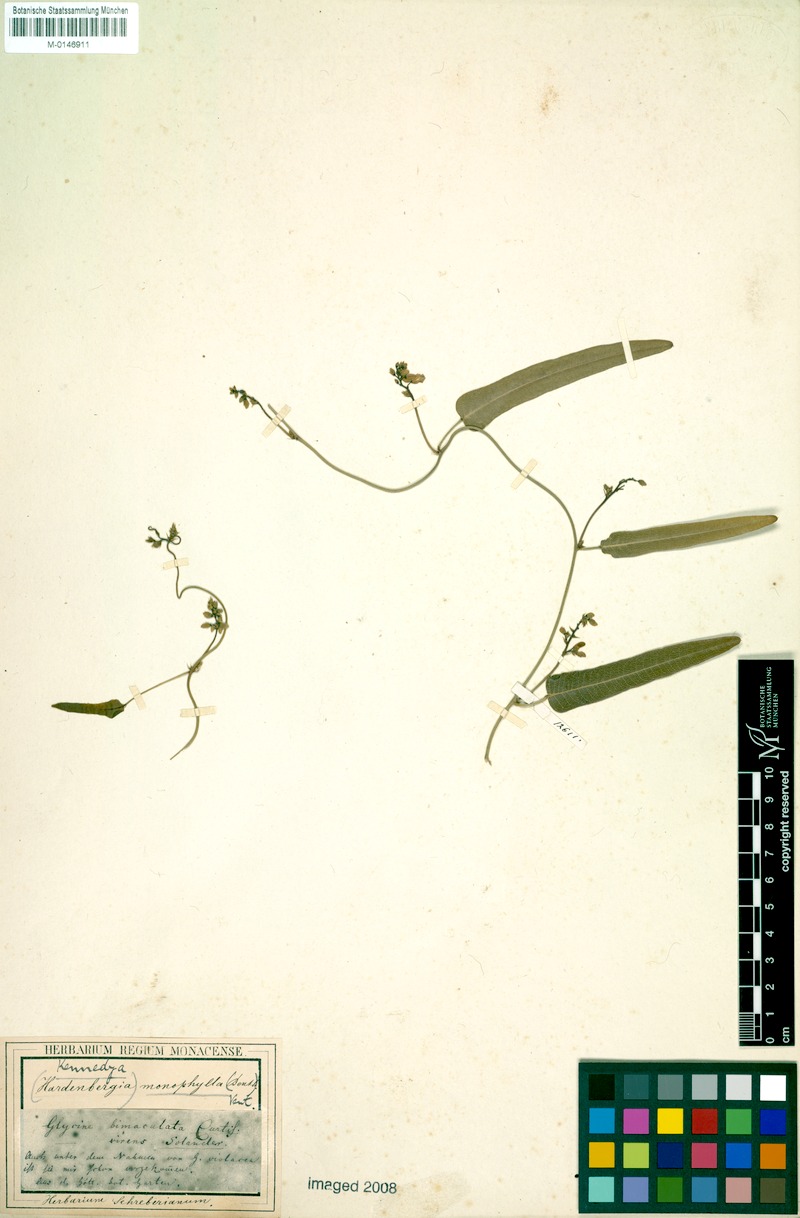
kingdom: Plantae
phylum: Tracheophyta
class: Magnoliopsida
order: Fabales
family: Fabaceae
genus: Hardenbergia
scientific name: Hardenbergia violacea
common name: Coral-pea
